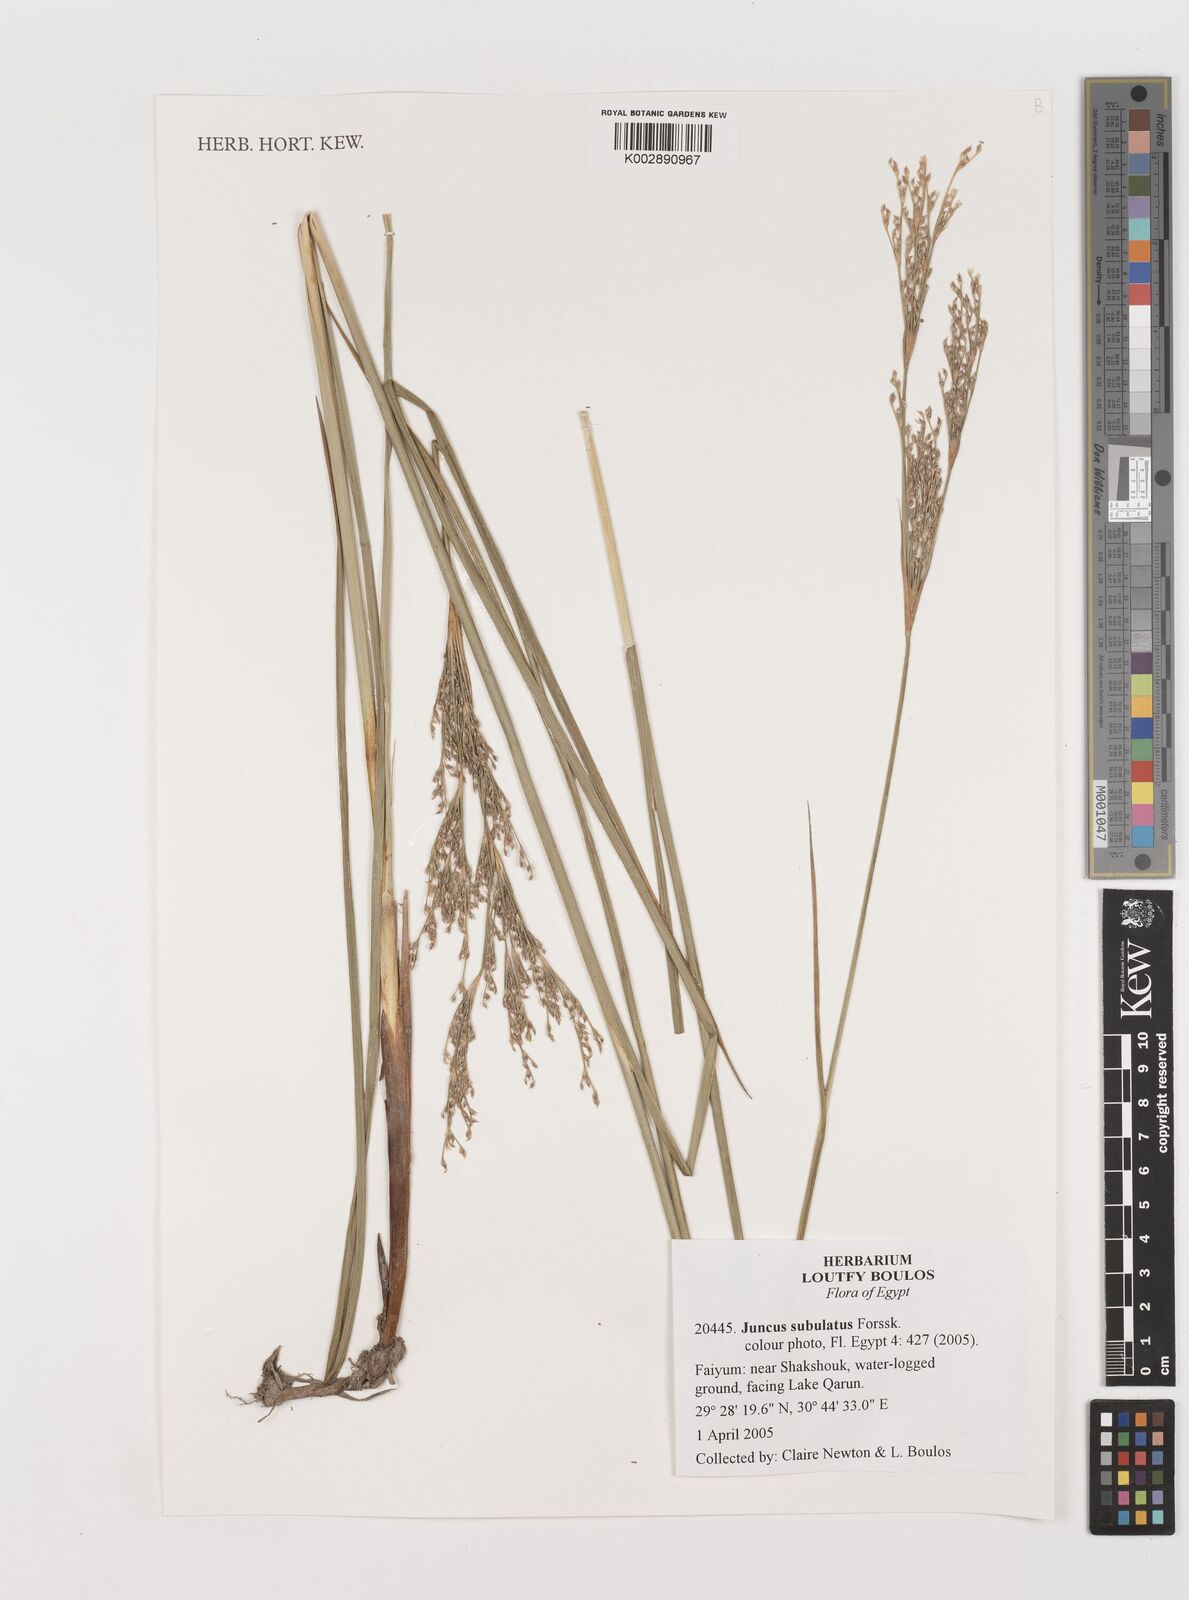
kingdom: Plantae
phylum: Tracheophyta
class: Liliopsida
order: Poales
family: Juncaceae
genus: Juncus
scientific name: Juncus subulatus
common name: Somerset rush
